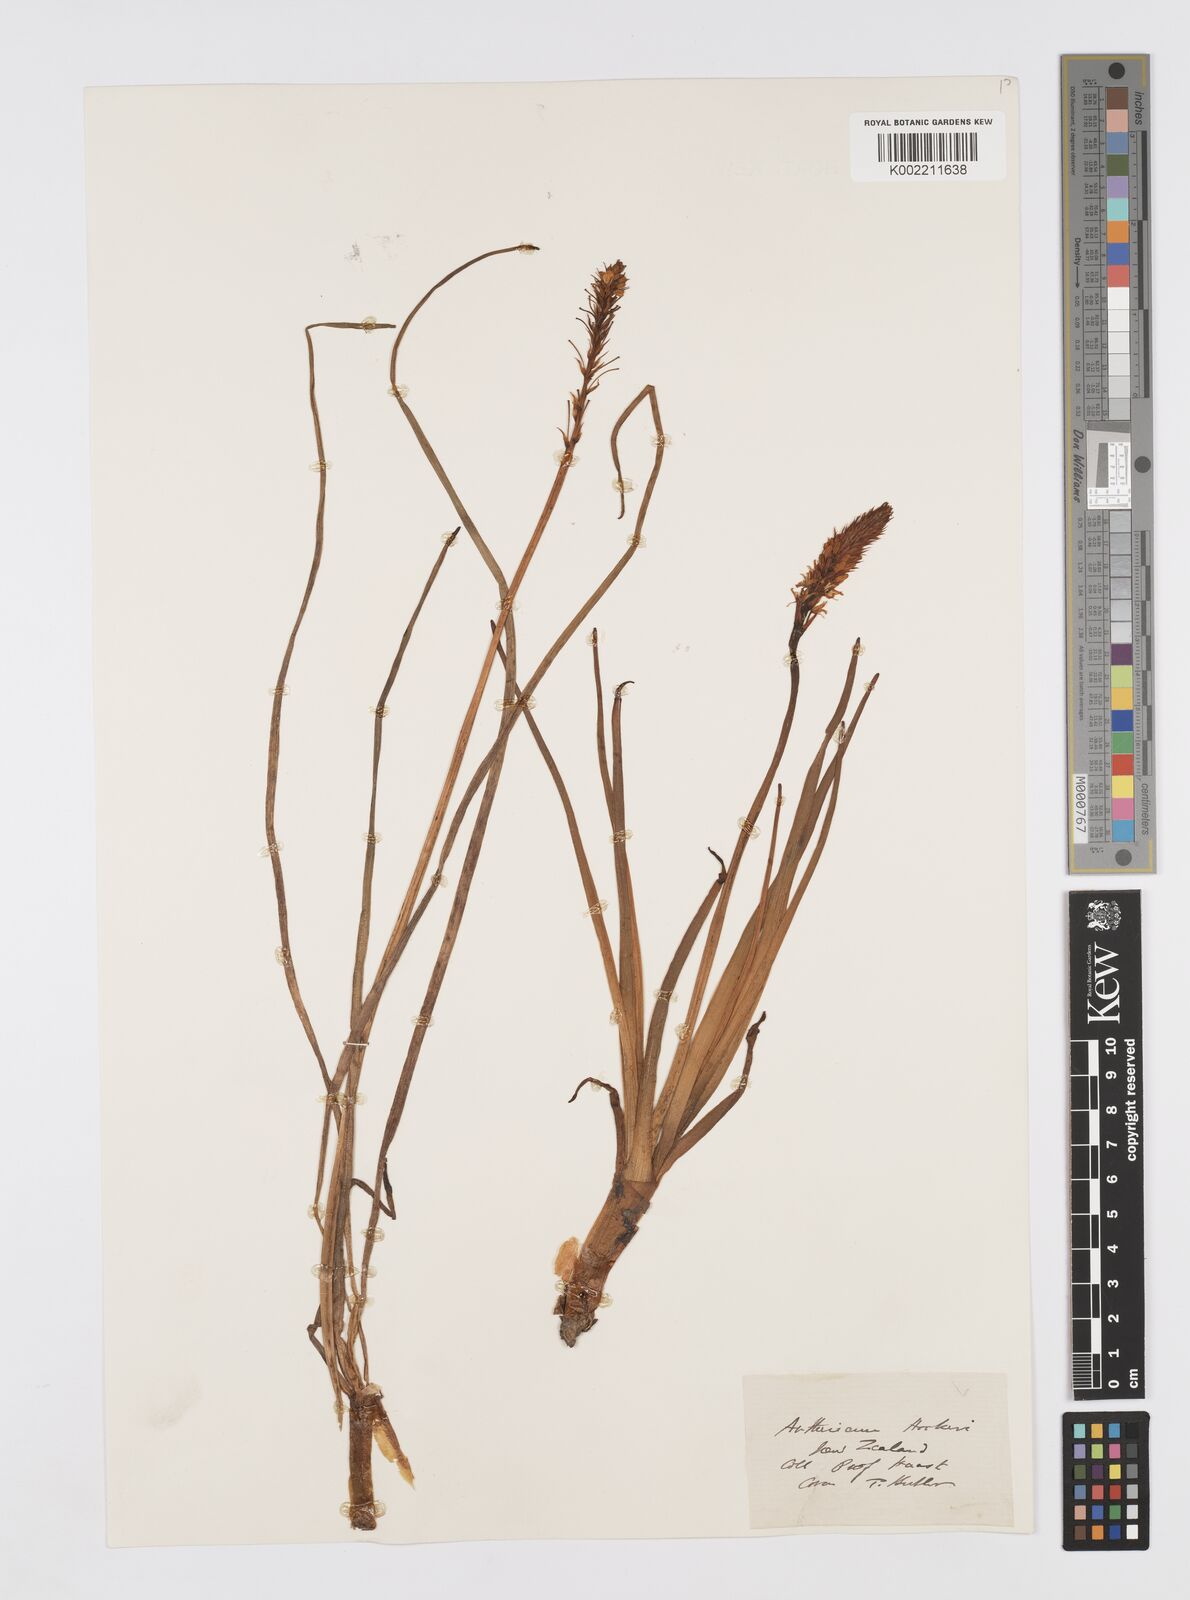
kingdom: Plantae
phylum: Tracheophyta
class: Liliopsida
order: Asparagales
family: Asphodelaceae
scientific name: Asphodelaceae
